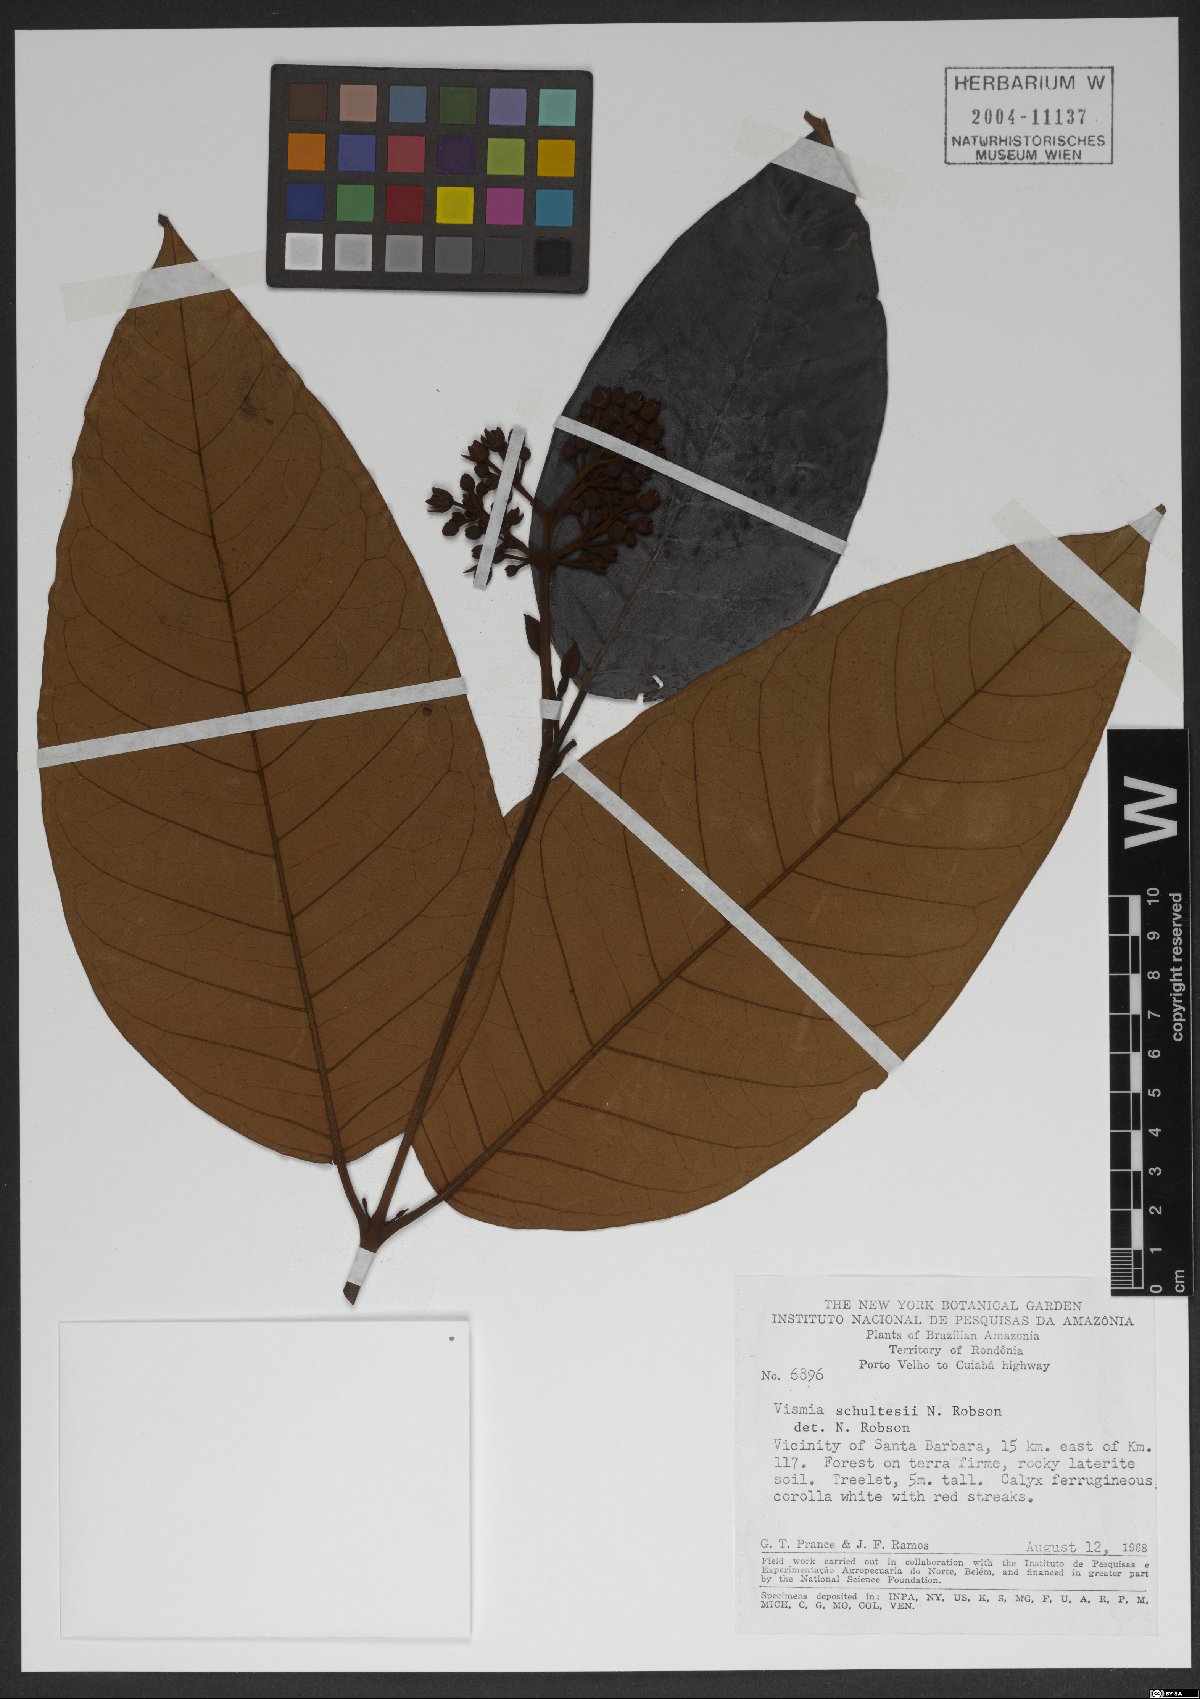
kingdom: Plantae
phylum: Tracheophyta
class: Magnoliopsida
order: Malpighiales
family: Hypericaceae
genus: Vismia
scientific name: Vismia ferruginea
